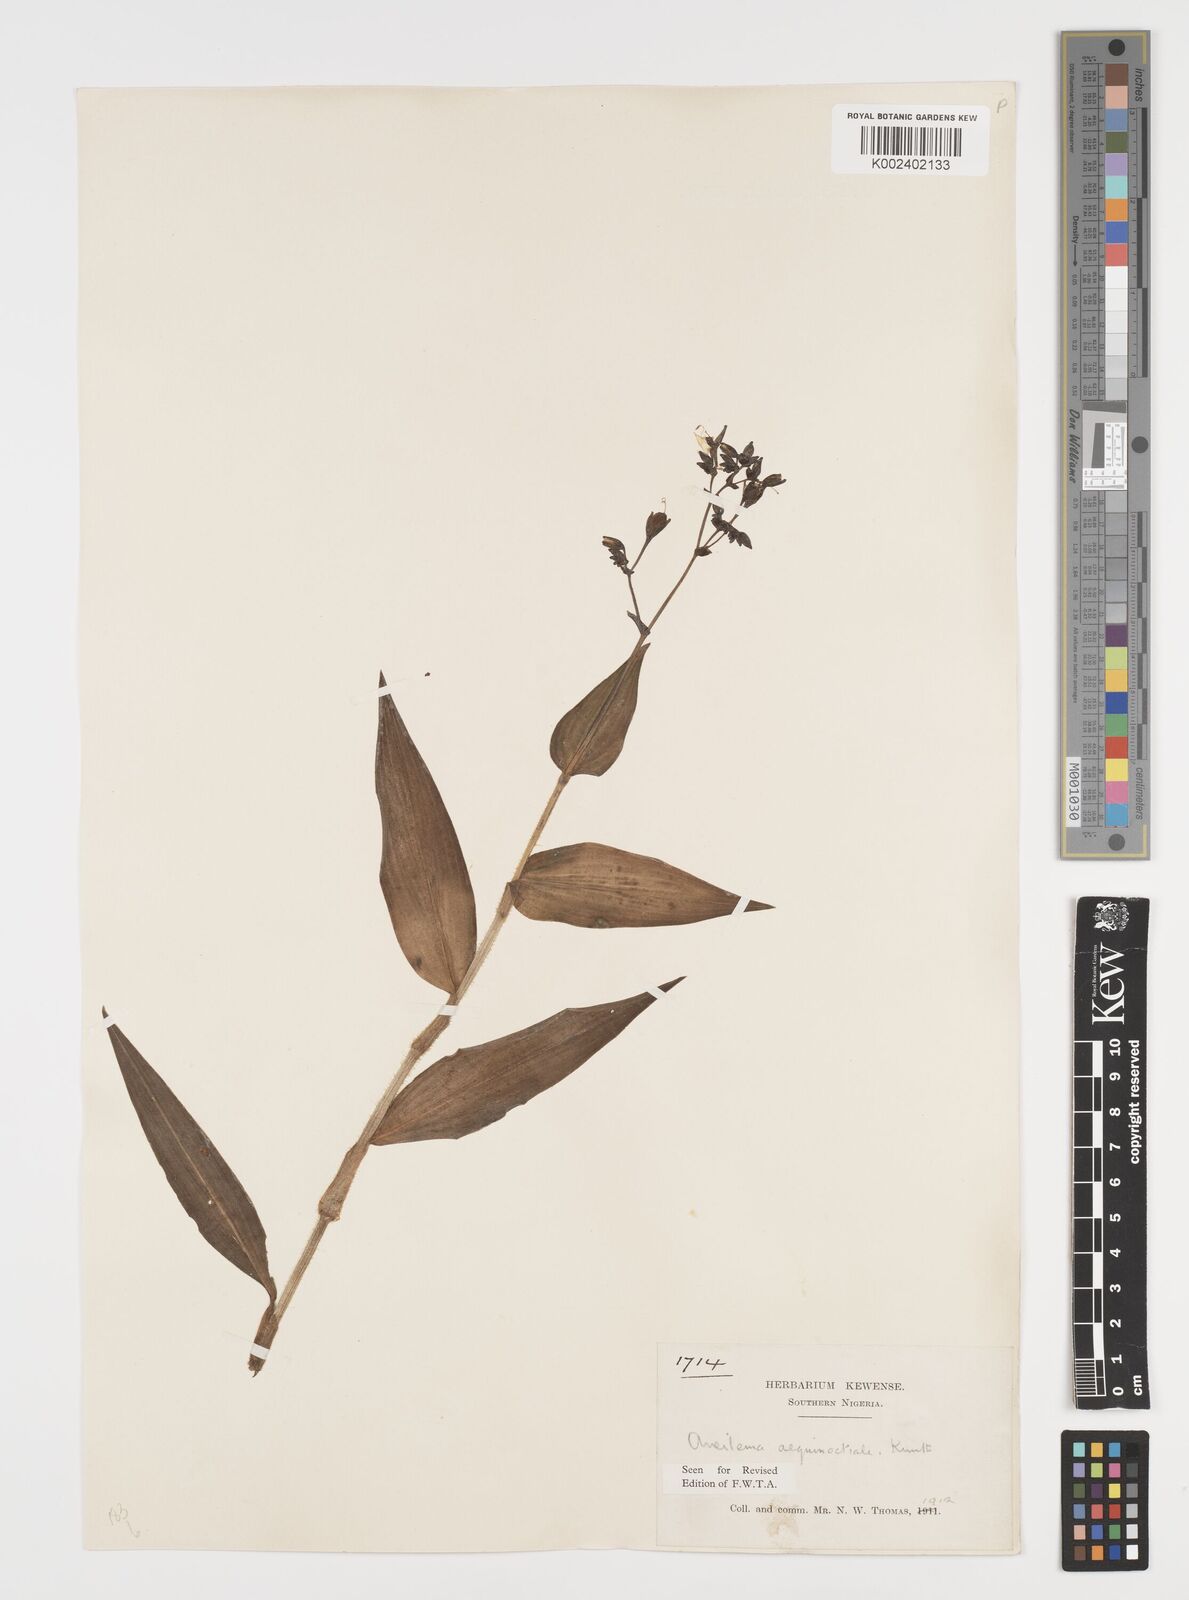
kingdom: Plantae
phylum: Tracheophyta
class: Liliopsida
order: Commelinales
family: Commelinaceae
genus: Aneilema
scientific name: Aneilema aequinoctiale
